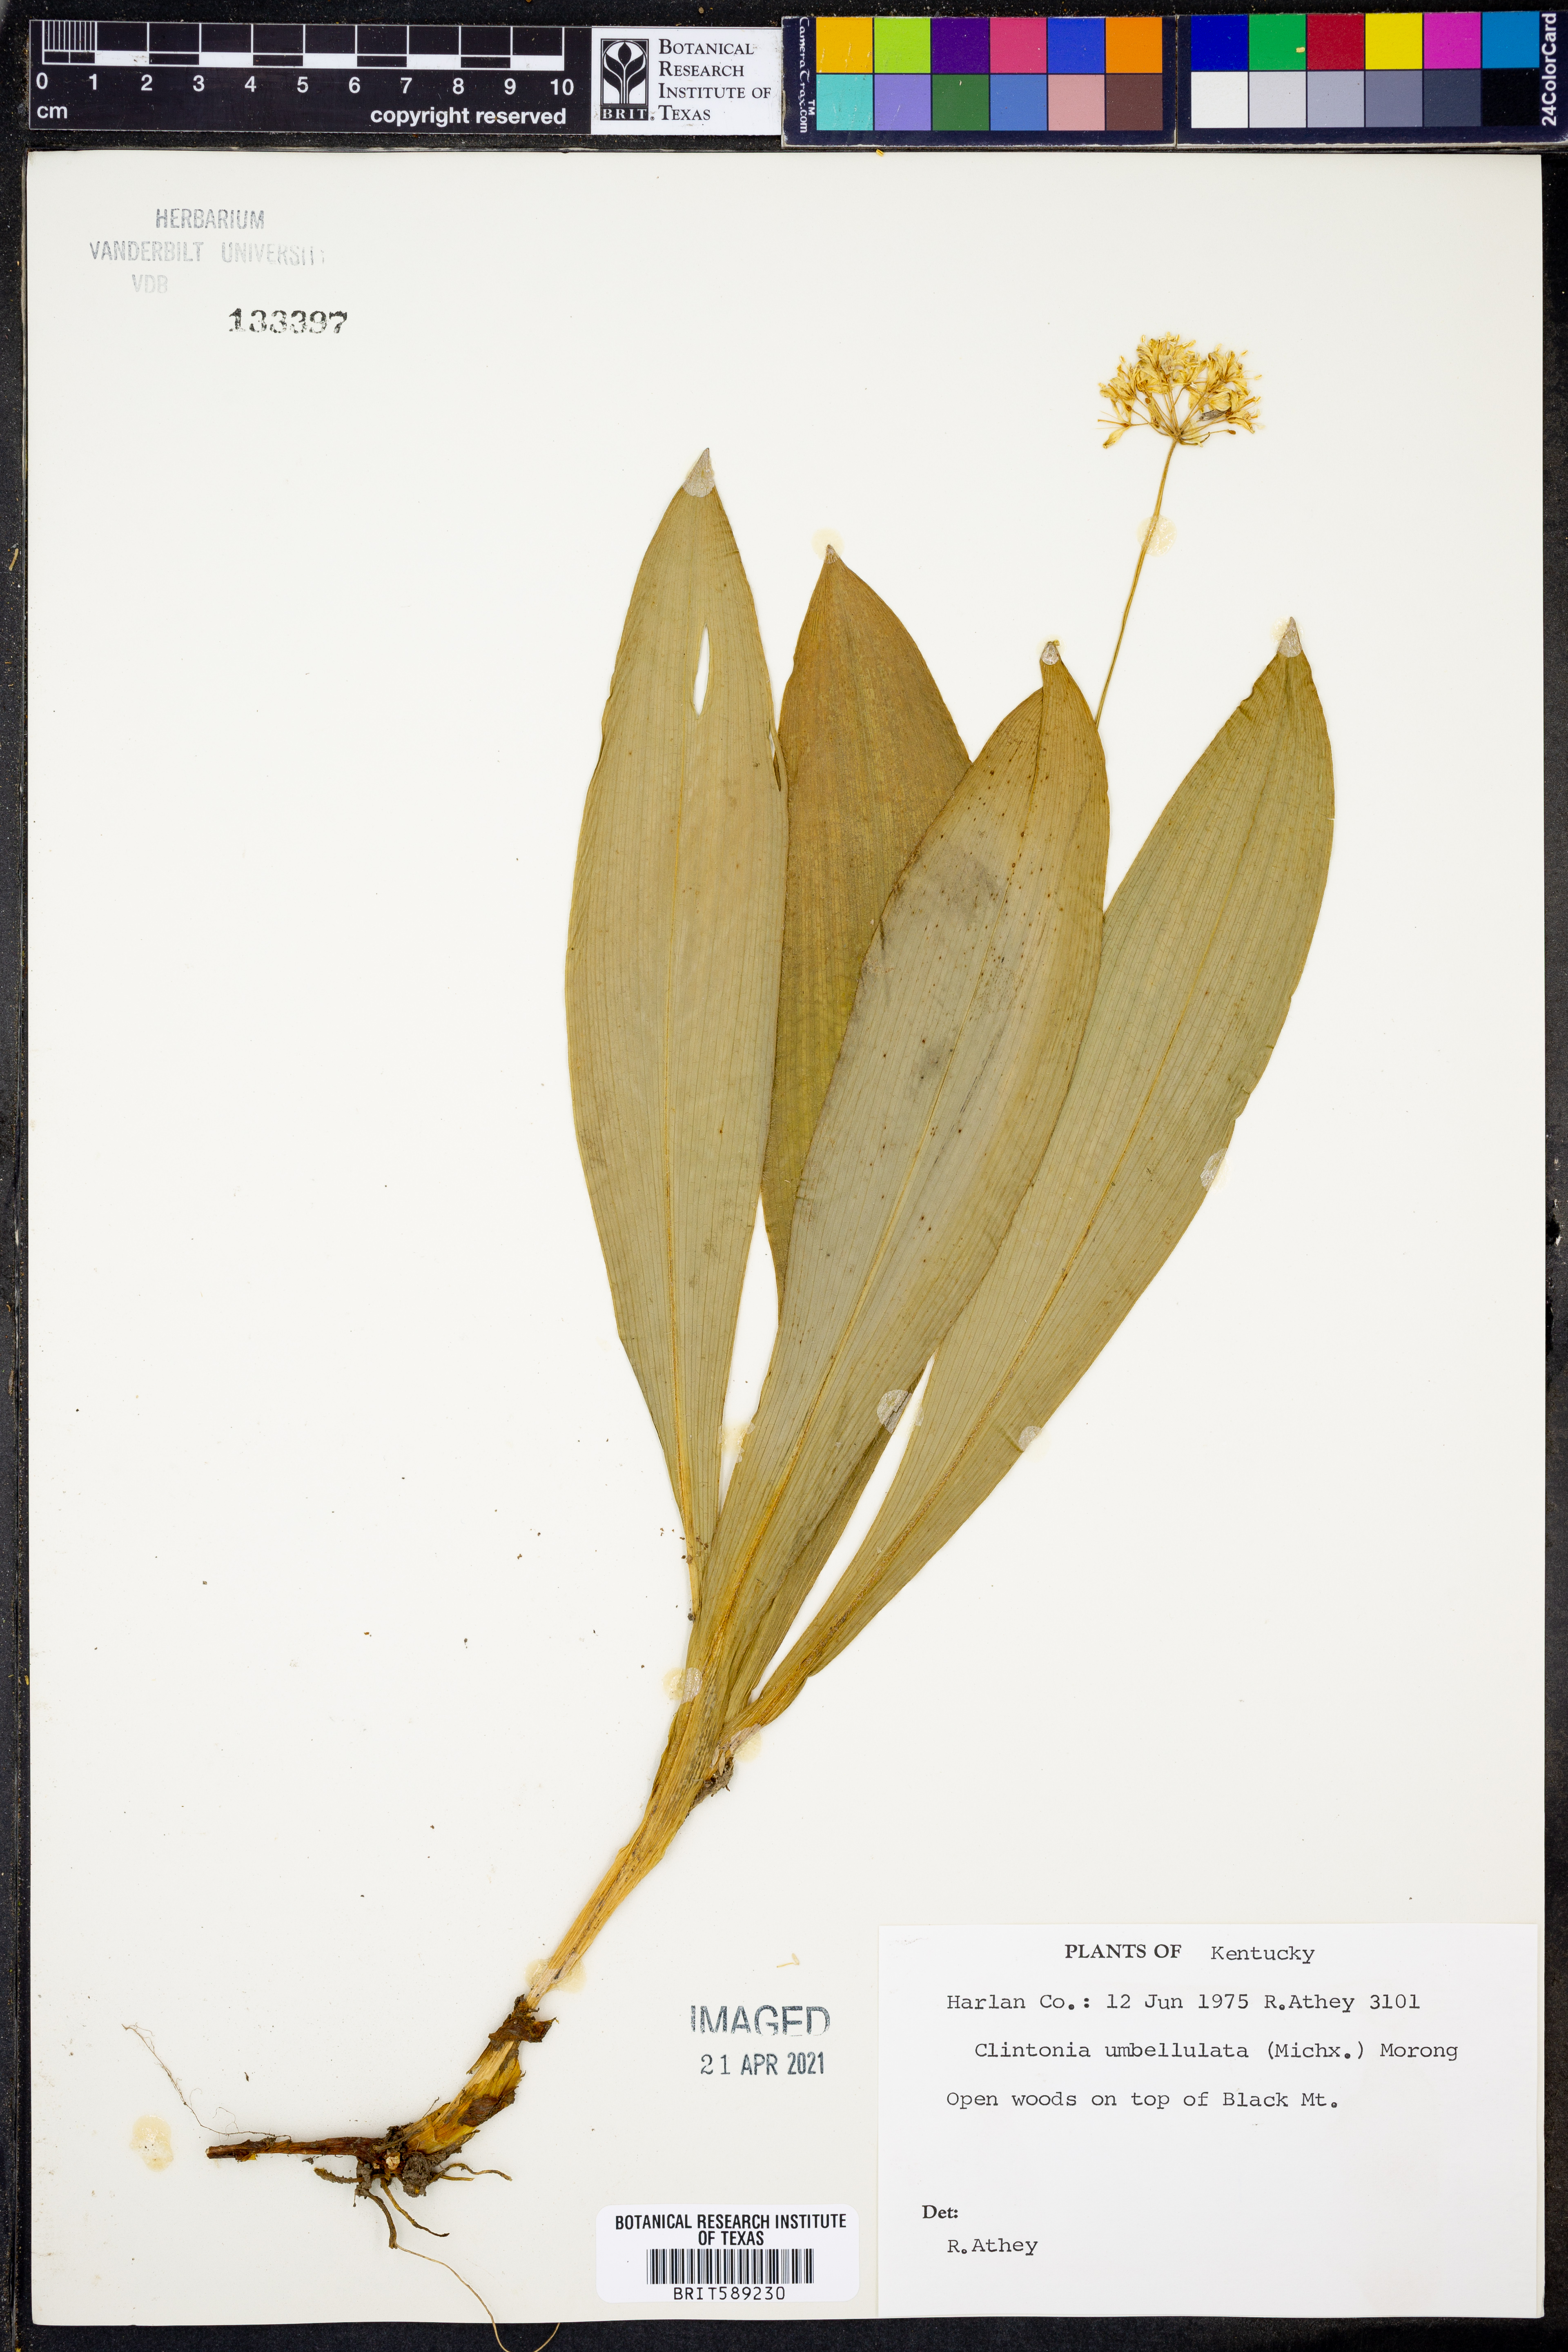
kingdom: Plantae
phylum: Tracheophyta
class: Liliopsida
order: Liliales
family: Liliaceae
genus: Clintonia
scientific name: Clintonia umbellulata
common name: Speckle wood-lily
